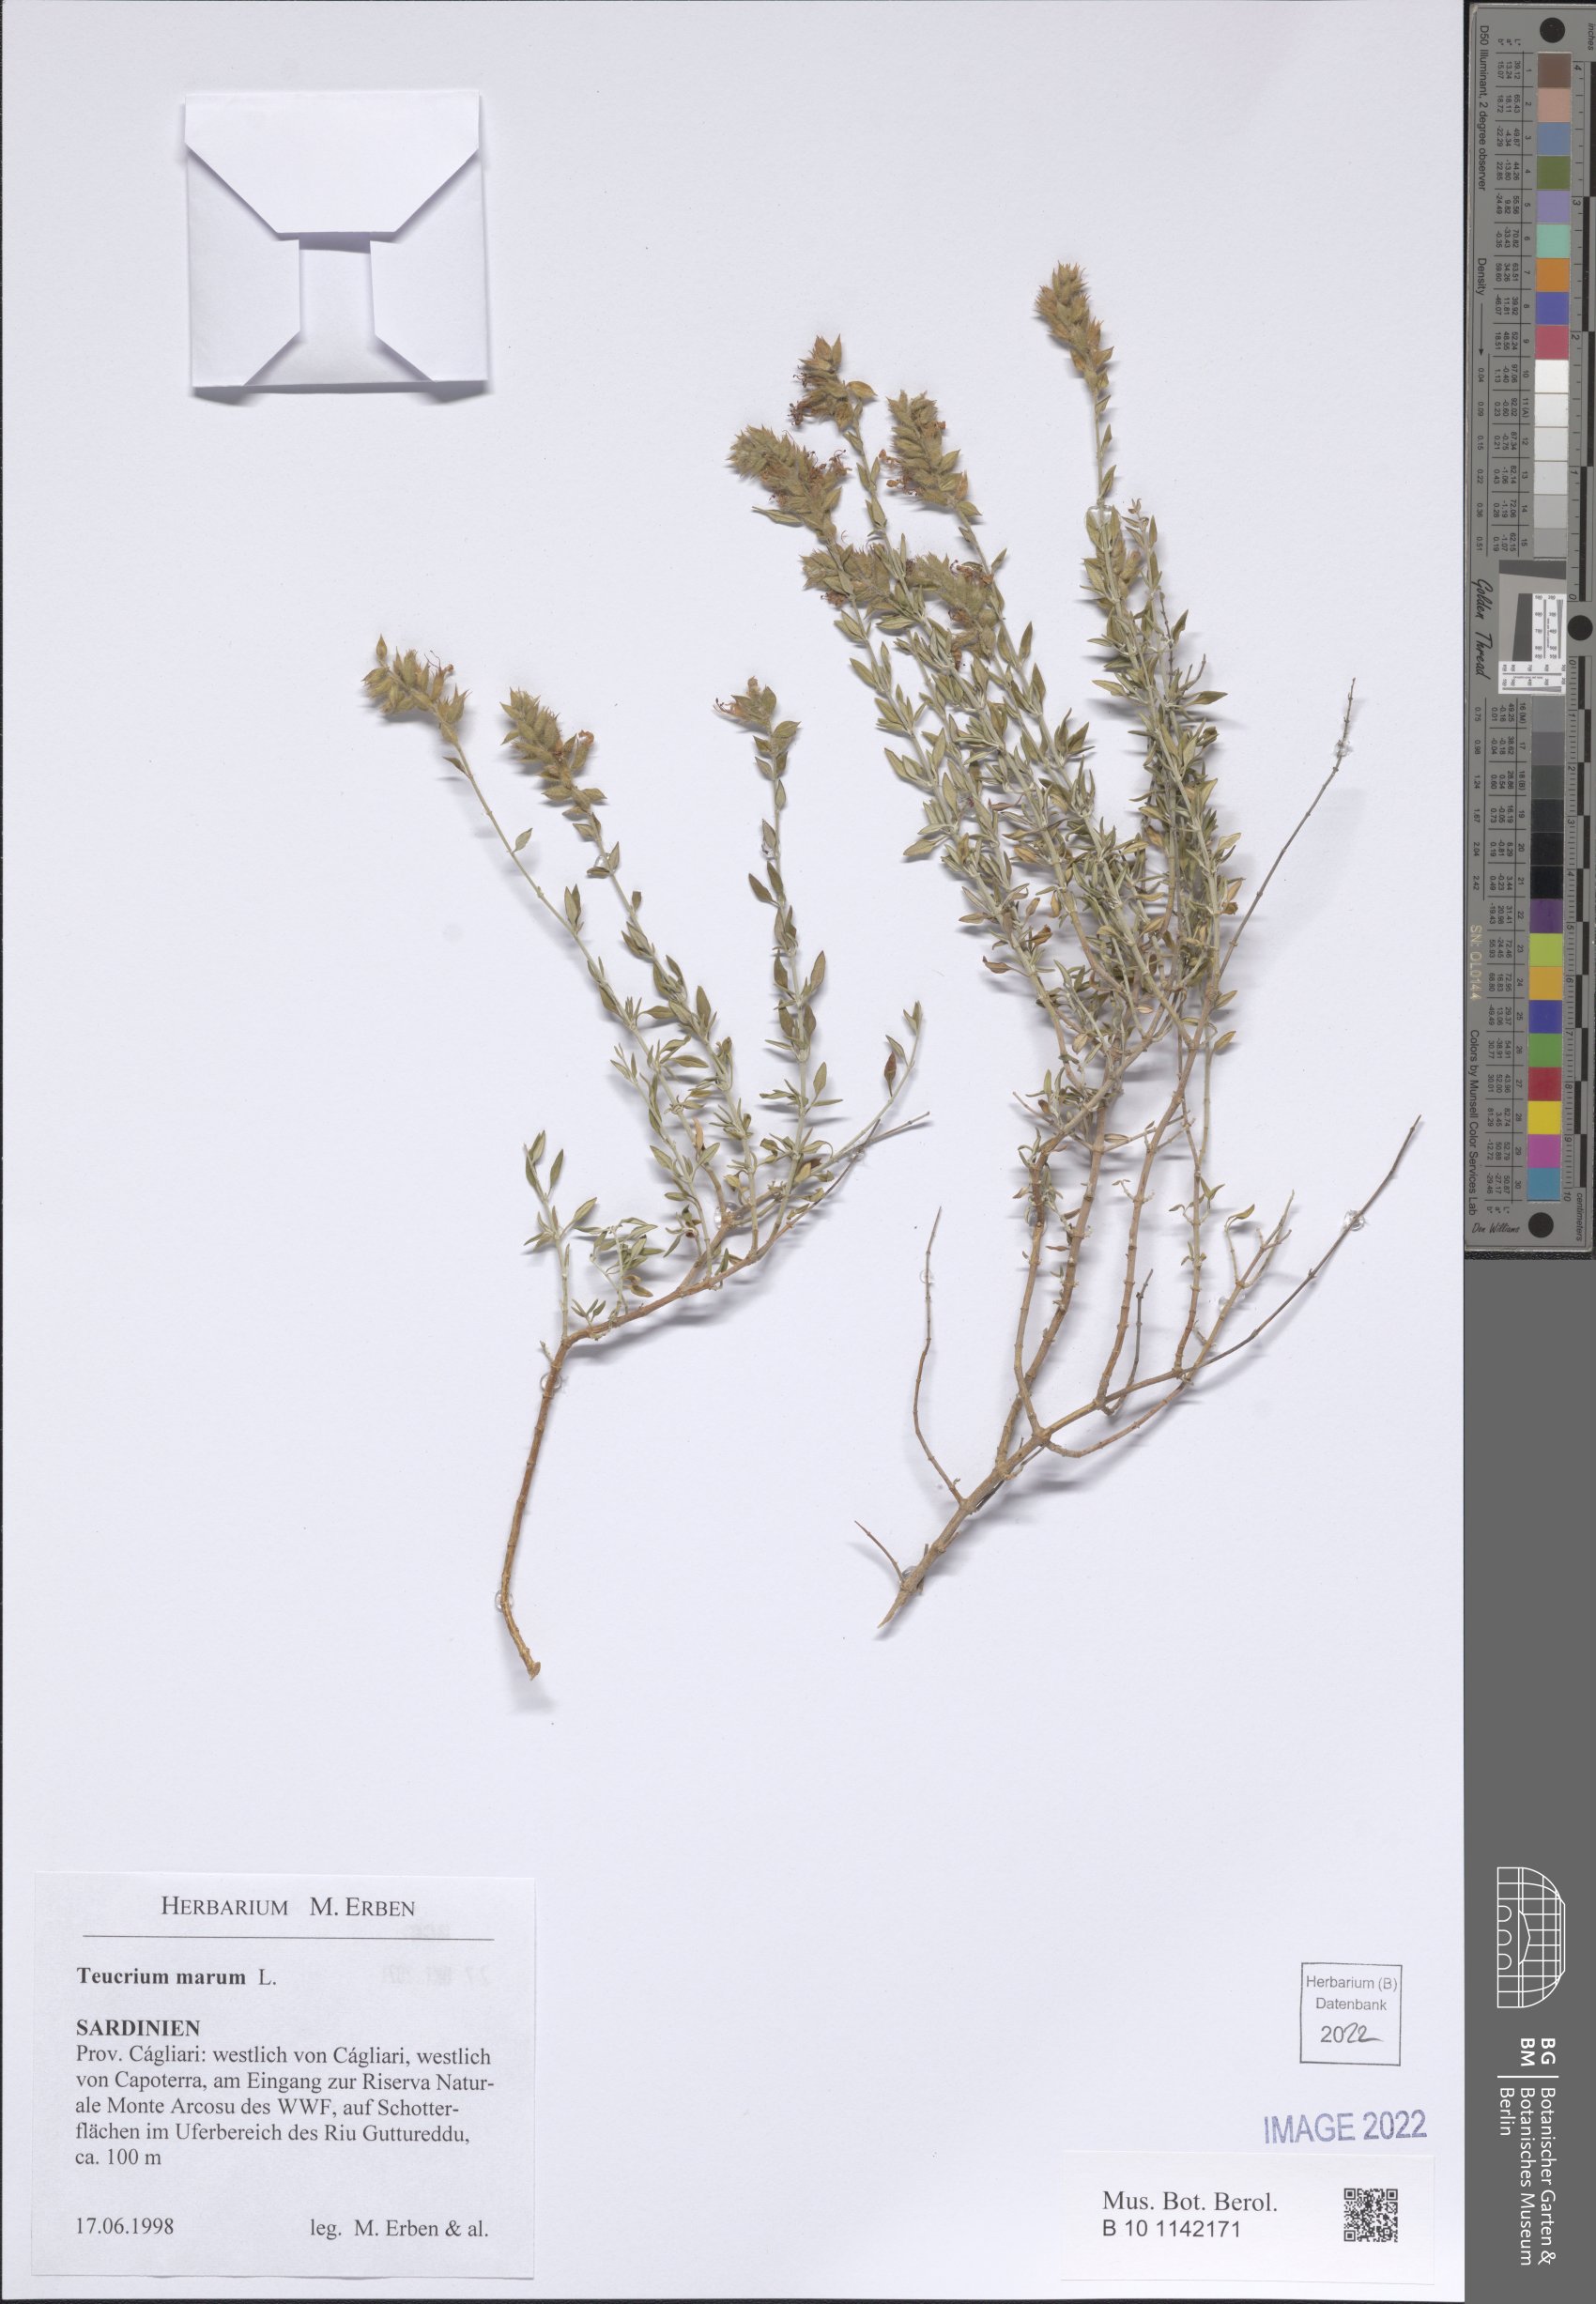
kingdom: Plantae
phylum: Tracheophyta
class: Magnoliopsida
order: Lamiales
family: Lamiaceae
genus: Teucrium
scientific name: Teucrium marum
